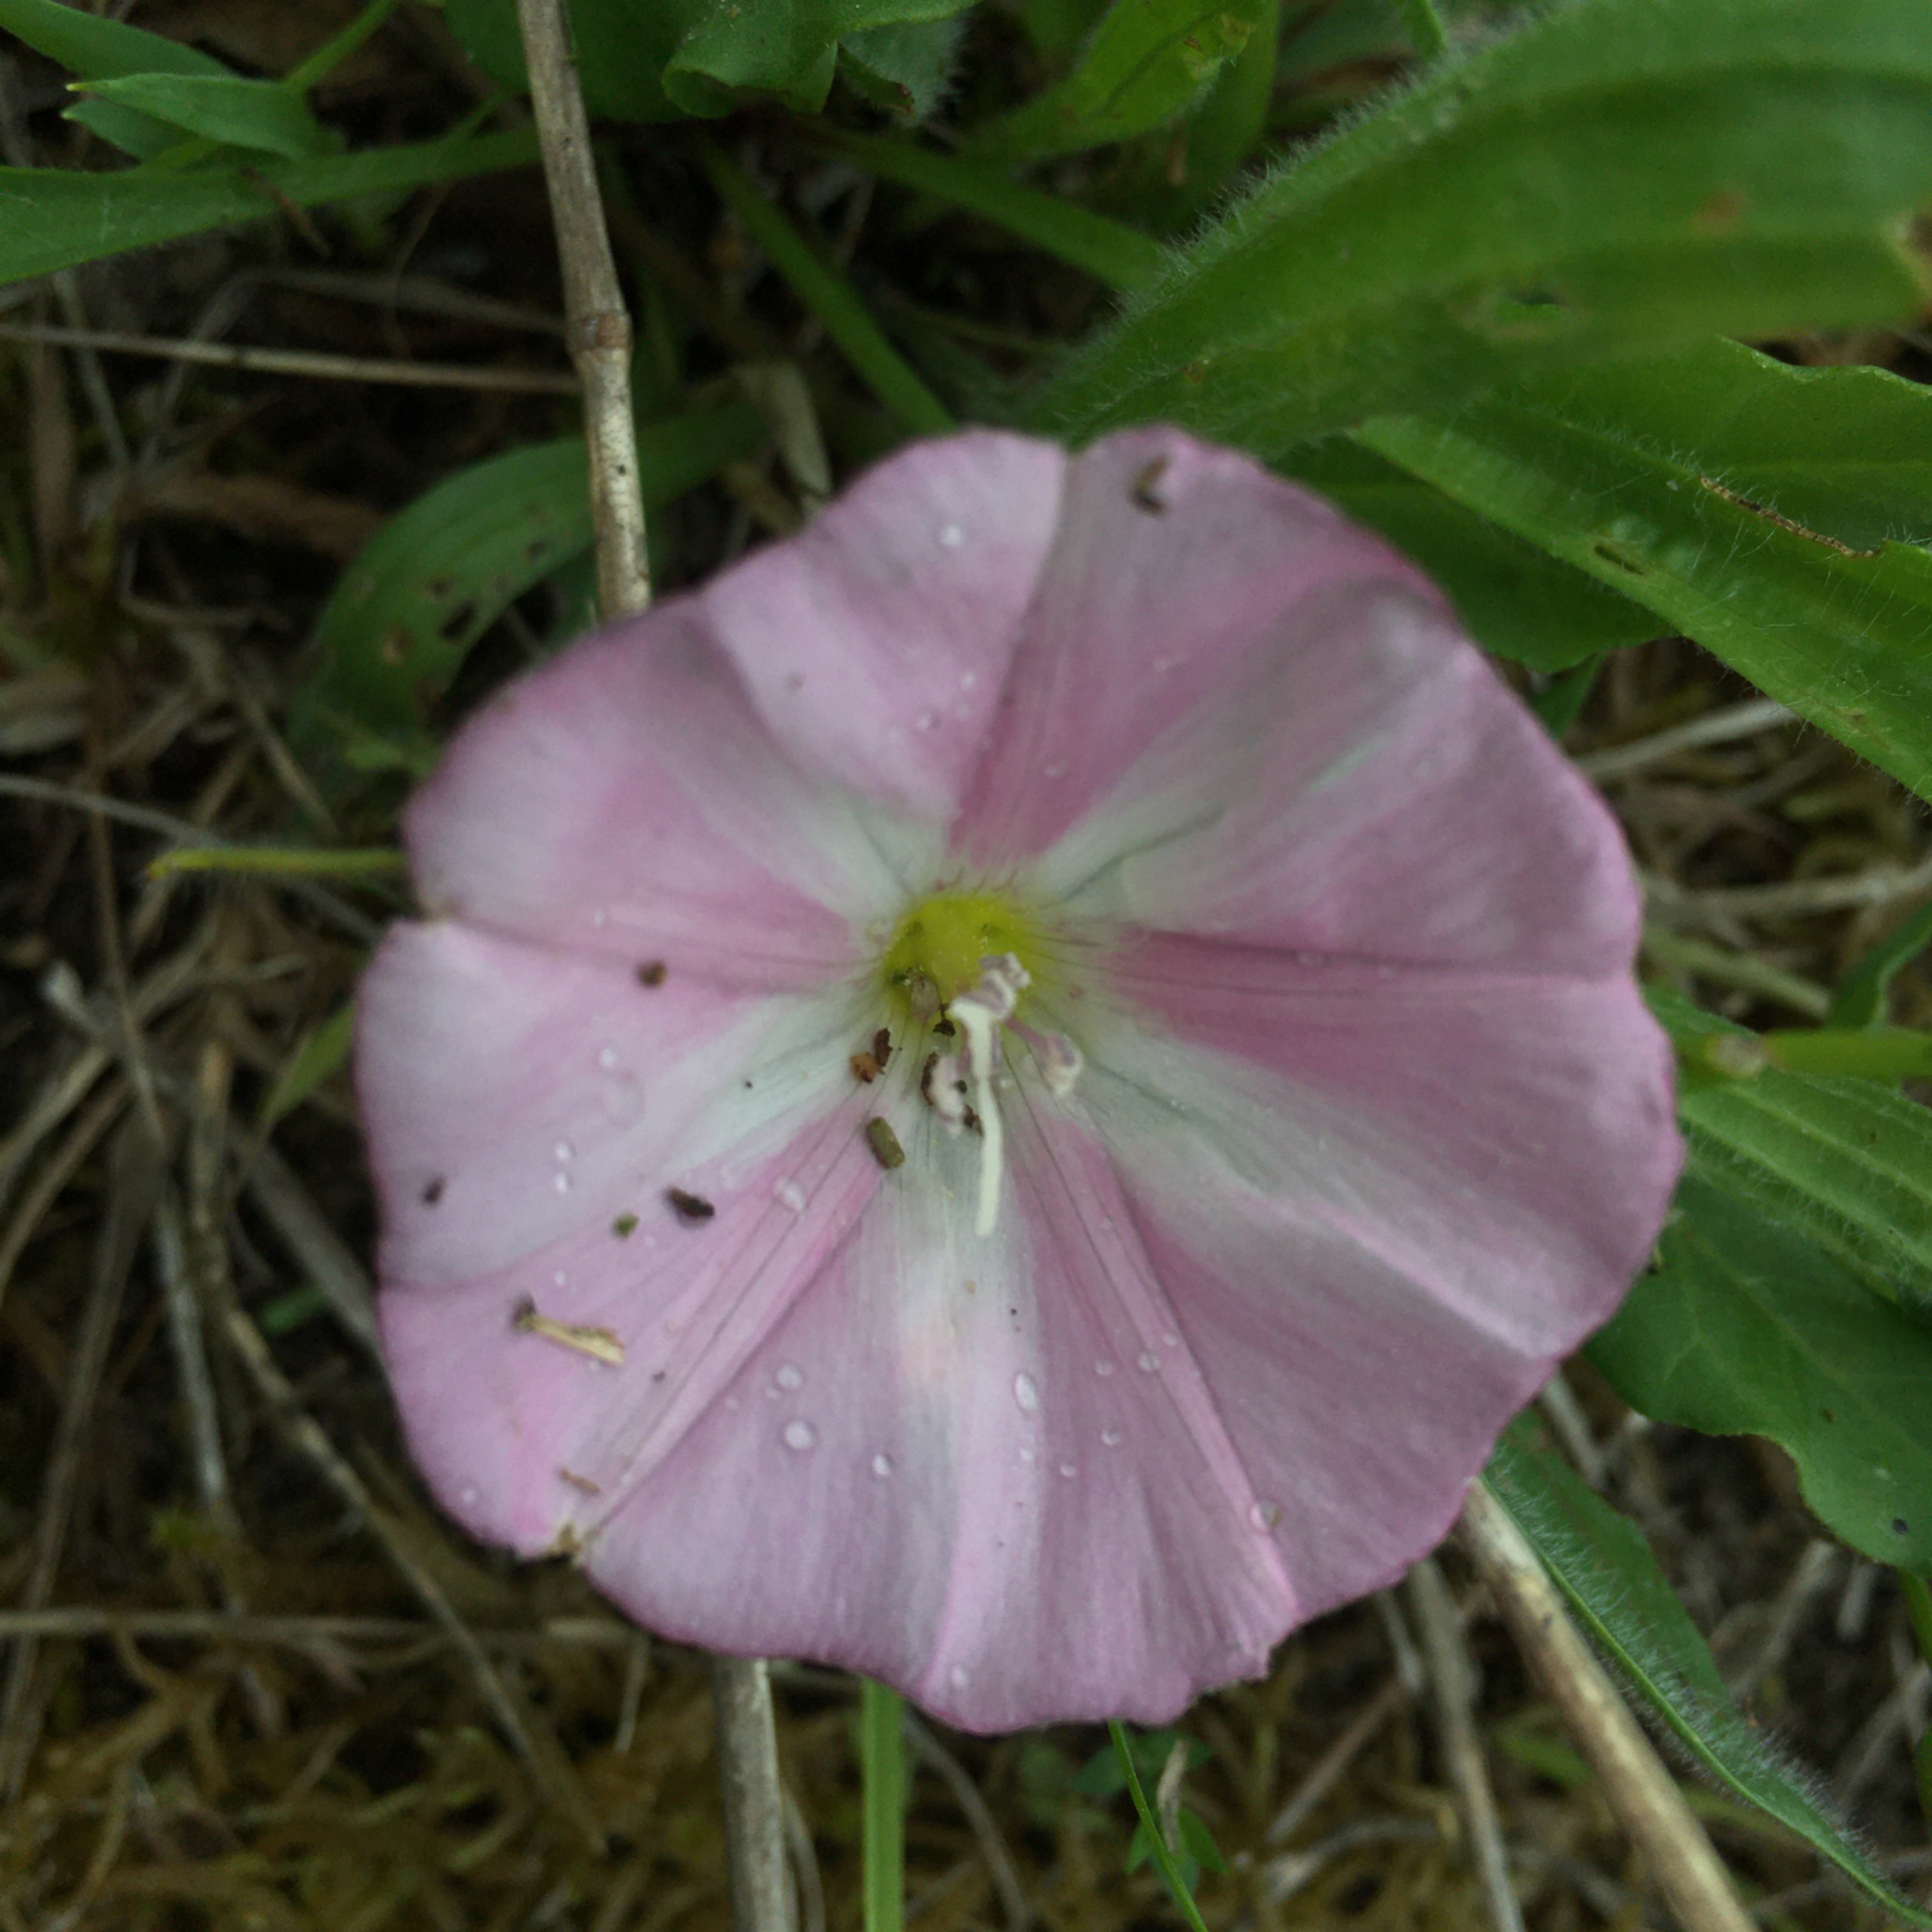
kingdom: Plantae
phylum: Tracheophyta
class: Magnoliopsida
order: Solanales
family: Convolvulaceae
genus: Convolvulus
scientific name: Convolvulus arvensis
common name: Ager-snerle
